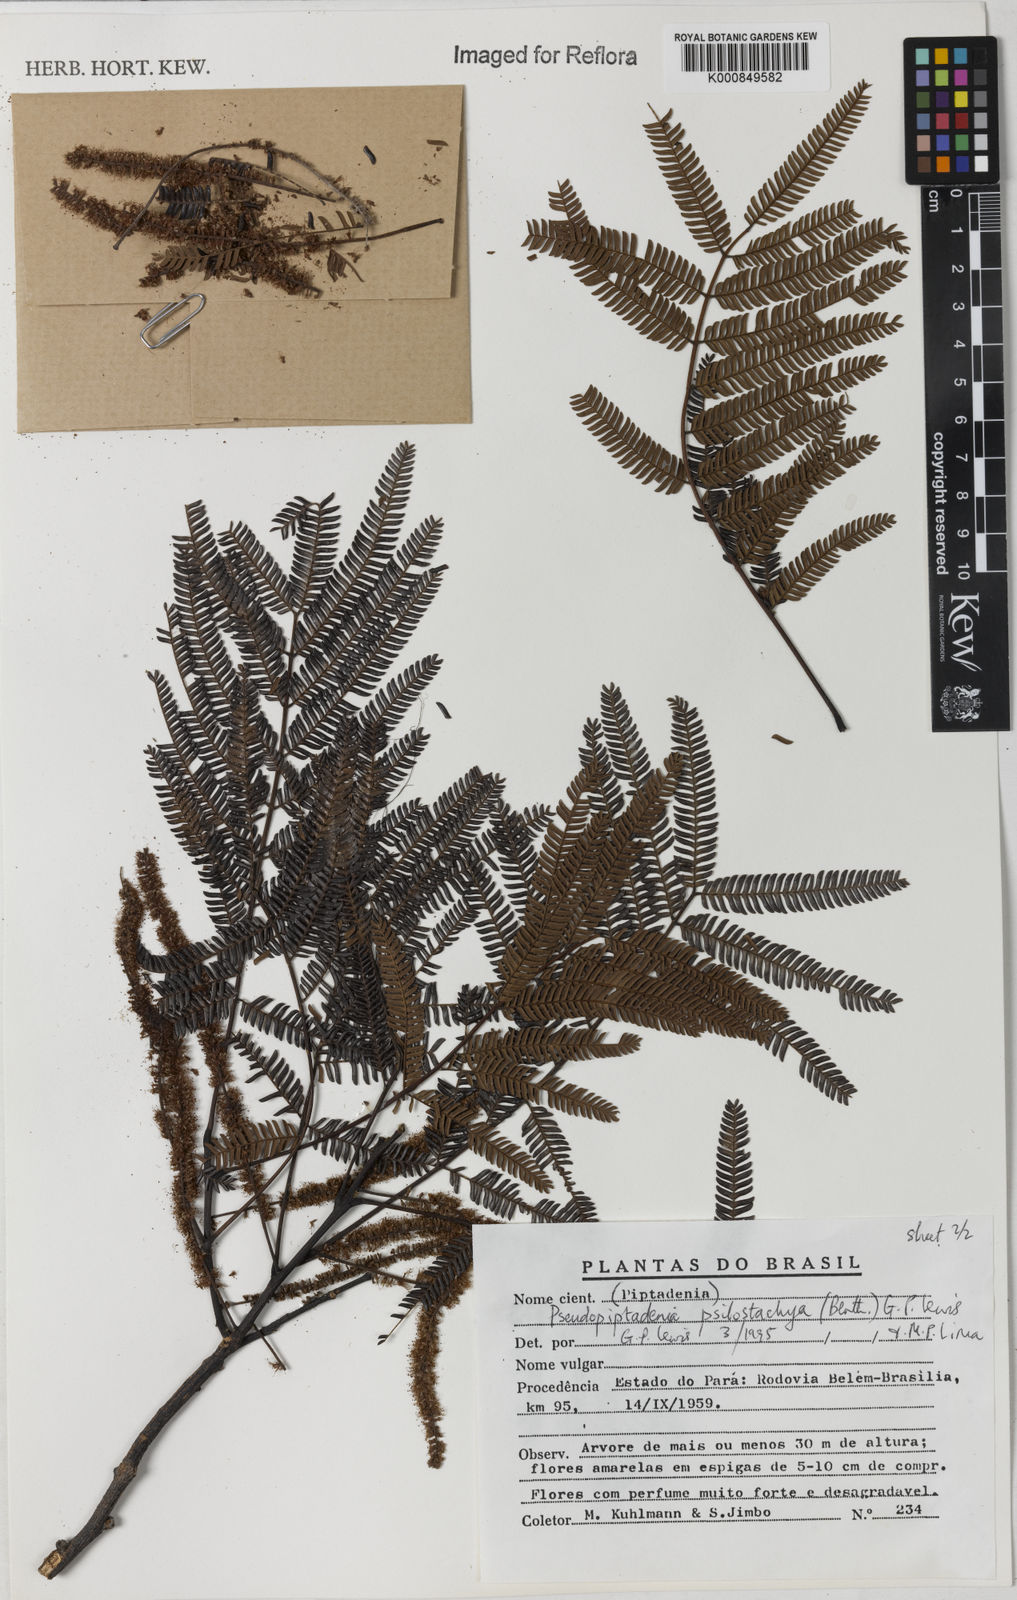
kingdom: Plantae
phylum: Tracheophyta
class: Magnoliopsida
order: Fabales
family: Fabaceae
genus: Pseudopiptadenia
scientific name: Pseudopiptadenia psilostachya
